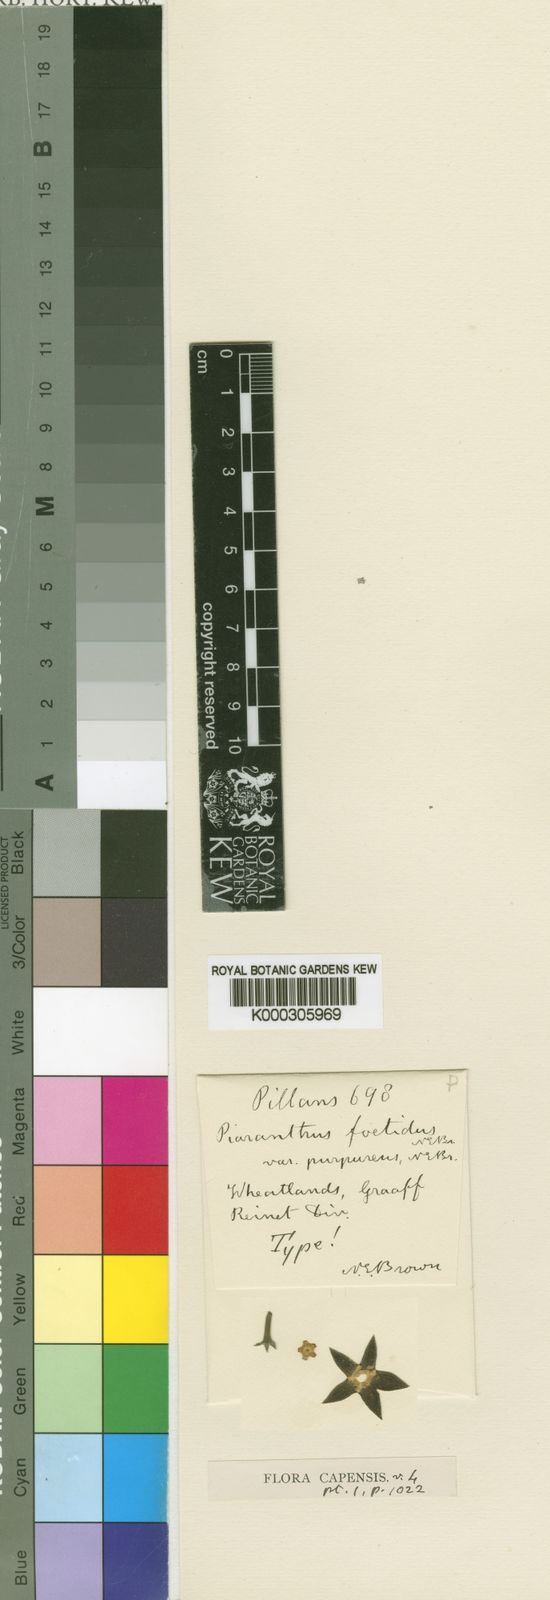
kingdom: Plantae
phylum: Tracheophyta
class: Magnoliopsida
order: Gentianales
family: Apocynaceae
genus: Ceropegia
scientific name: Ceropegia geminata
